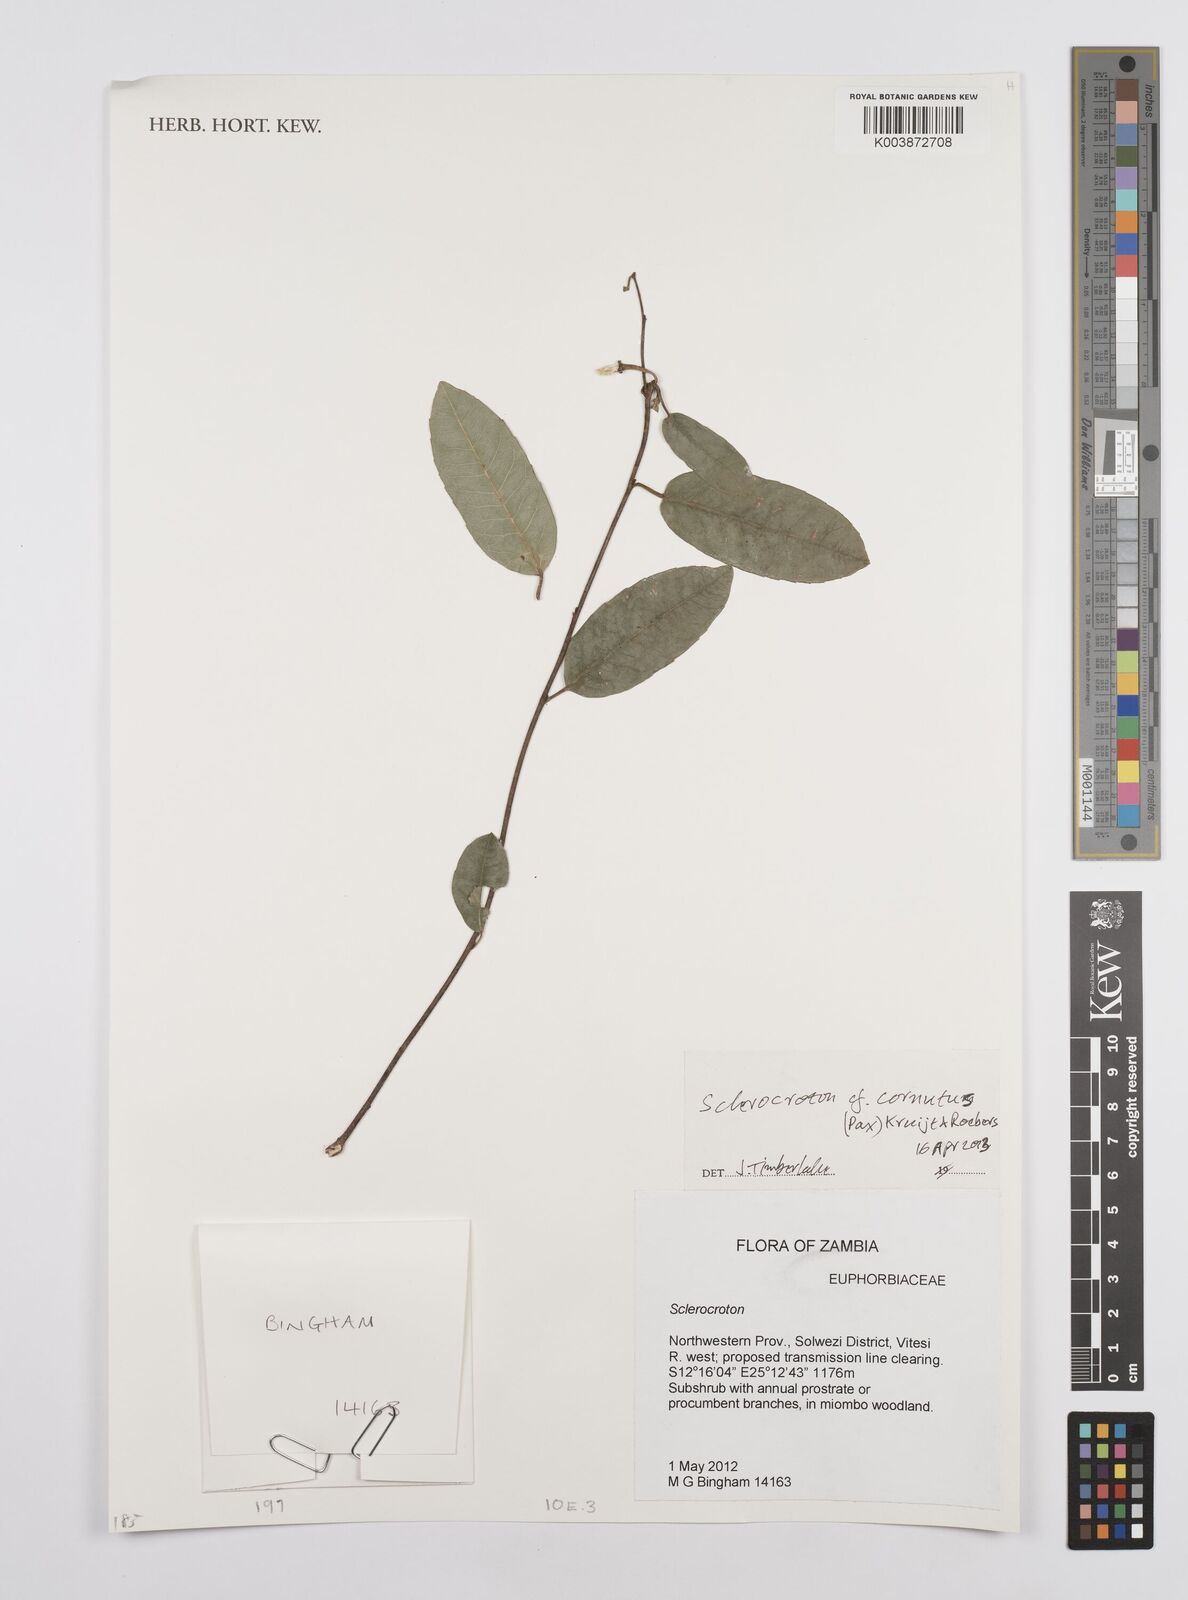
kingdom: Plantae
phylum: Tracheophyta
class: Magnoliopsida
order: Malpighiales
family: Euphorbiaceae
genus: Sclerocroton
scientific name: Sclerocroton cornutus
